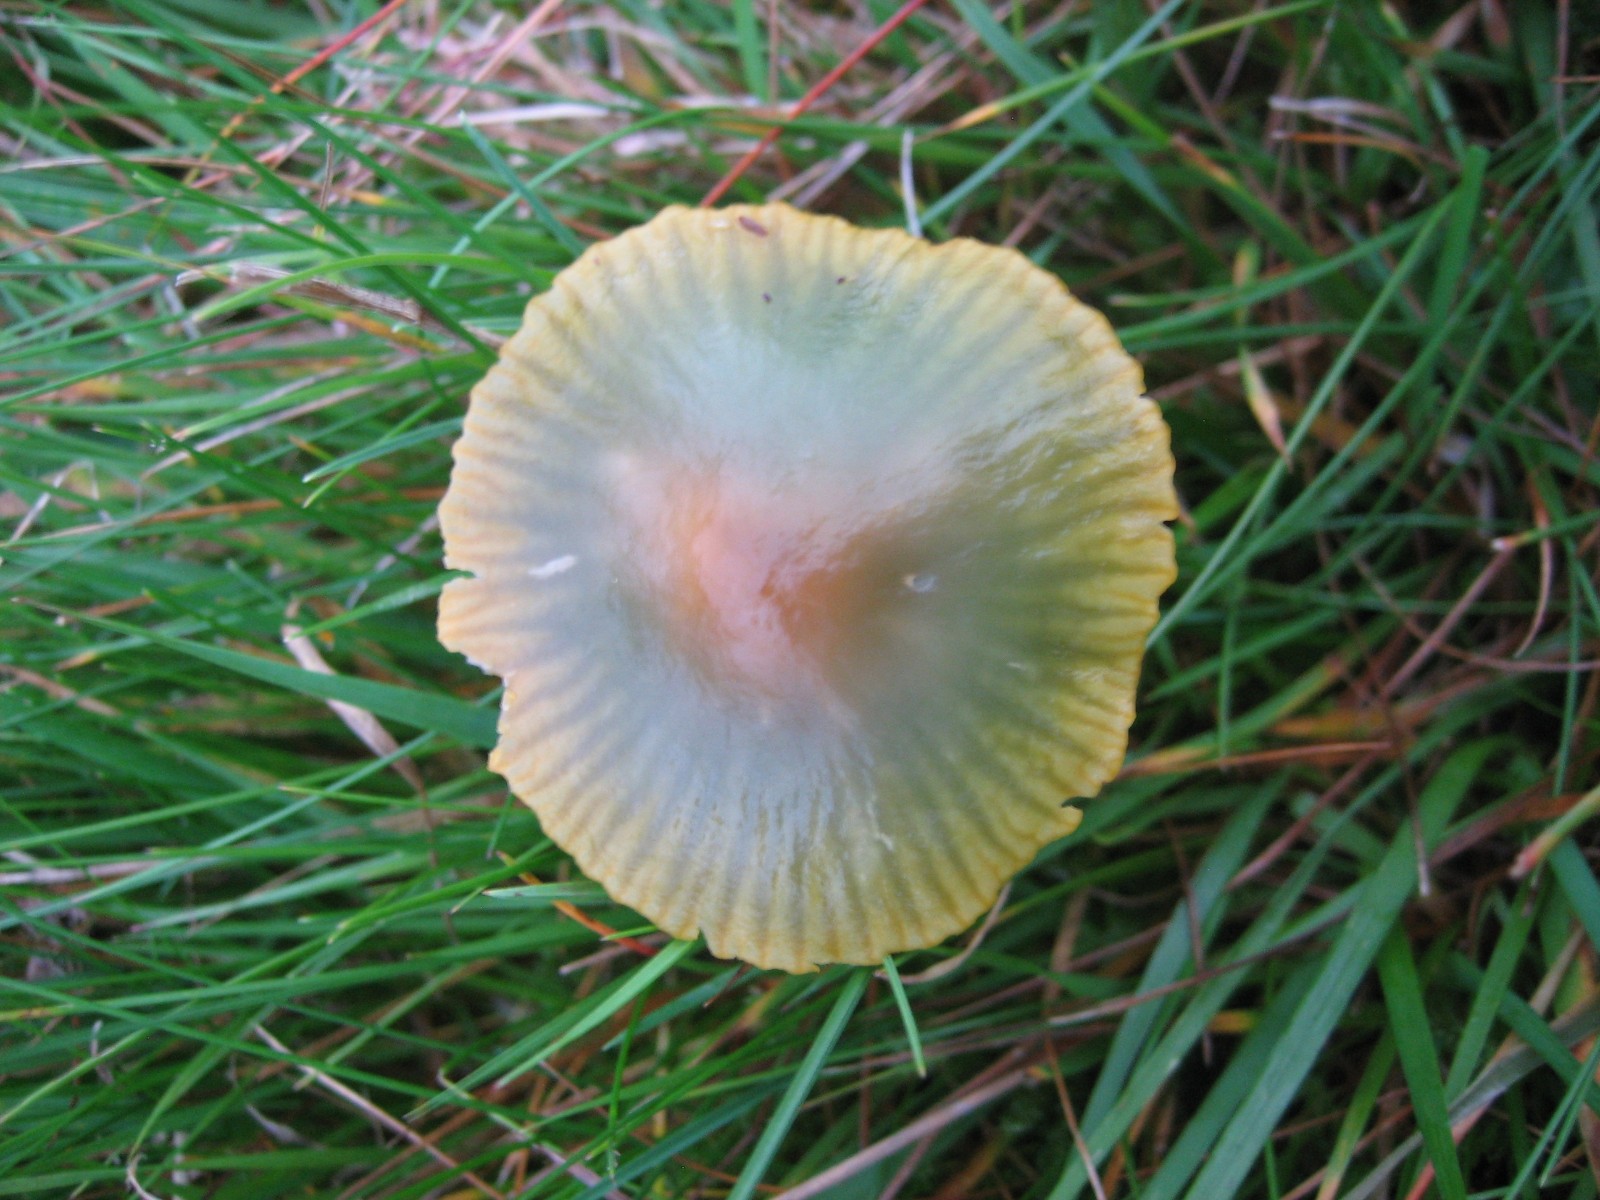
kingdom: Fungi
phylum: Basidiomycota
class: Agaricomycetes
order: Agaricales
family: Hygrophoraceae
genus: Gliophorus
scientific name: Gliophorus psittacinus
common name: papegøje-vokshat
